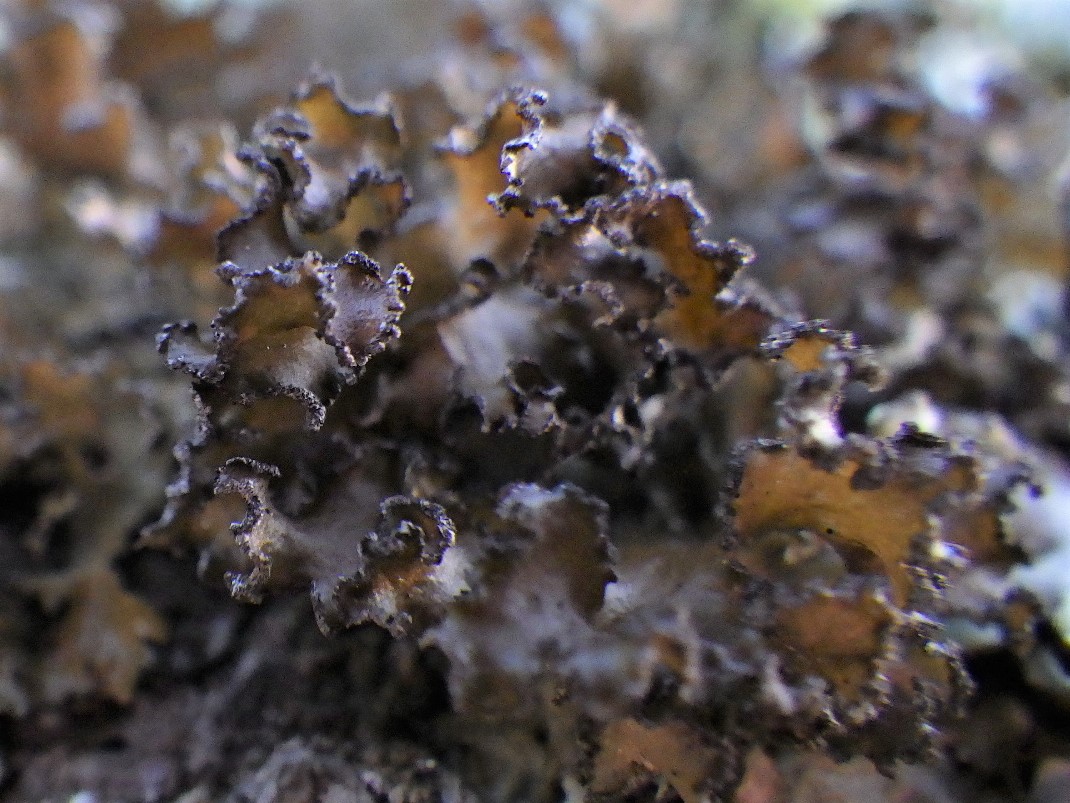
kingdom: Fungi
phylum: Ascomycota
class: Lecanoromycetes
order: Lecanorales
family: Parmeliaceae
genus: Nephromopsis
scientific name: Nephromopsis chlorophylla
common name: olivenbrun kruslav
